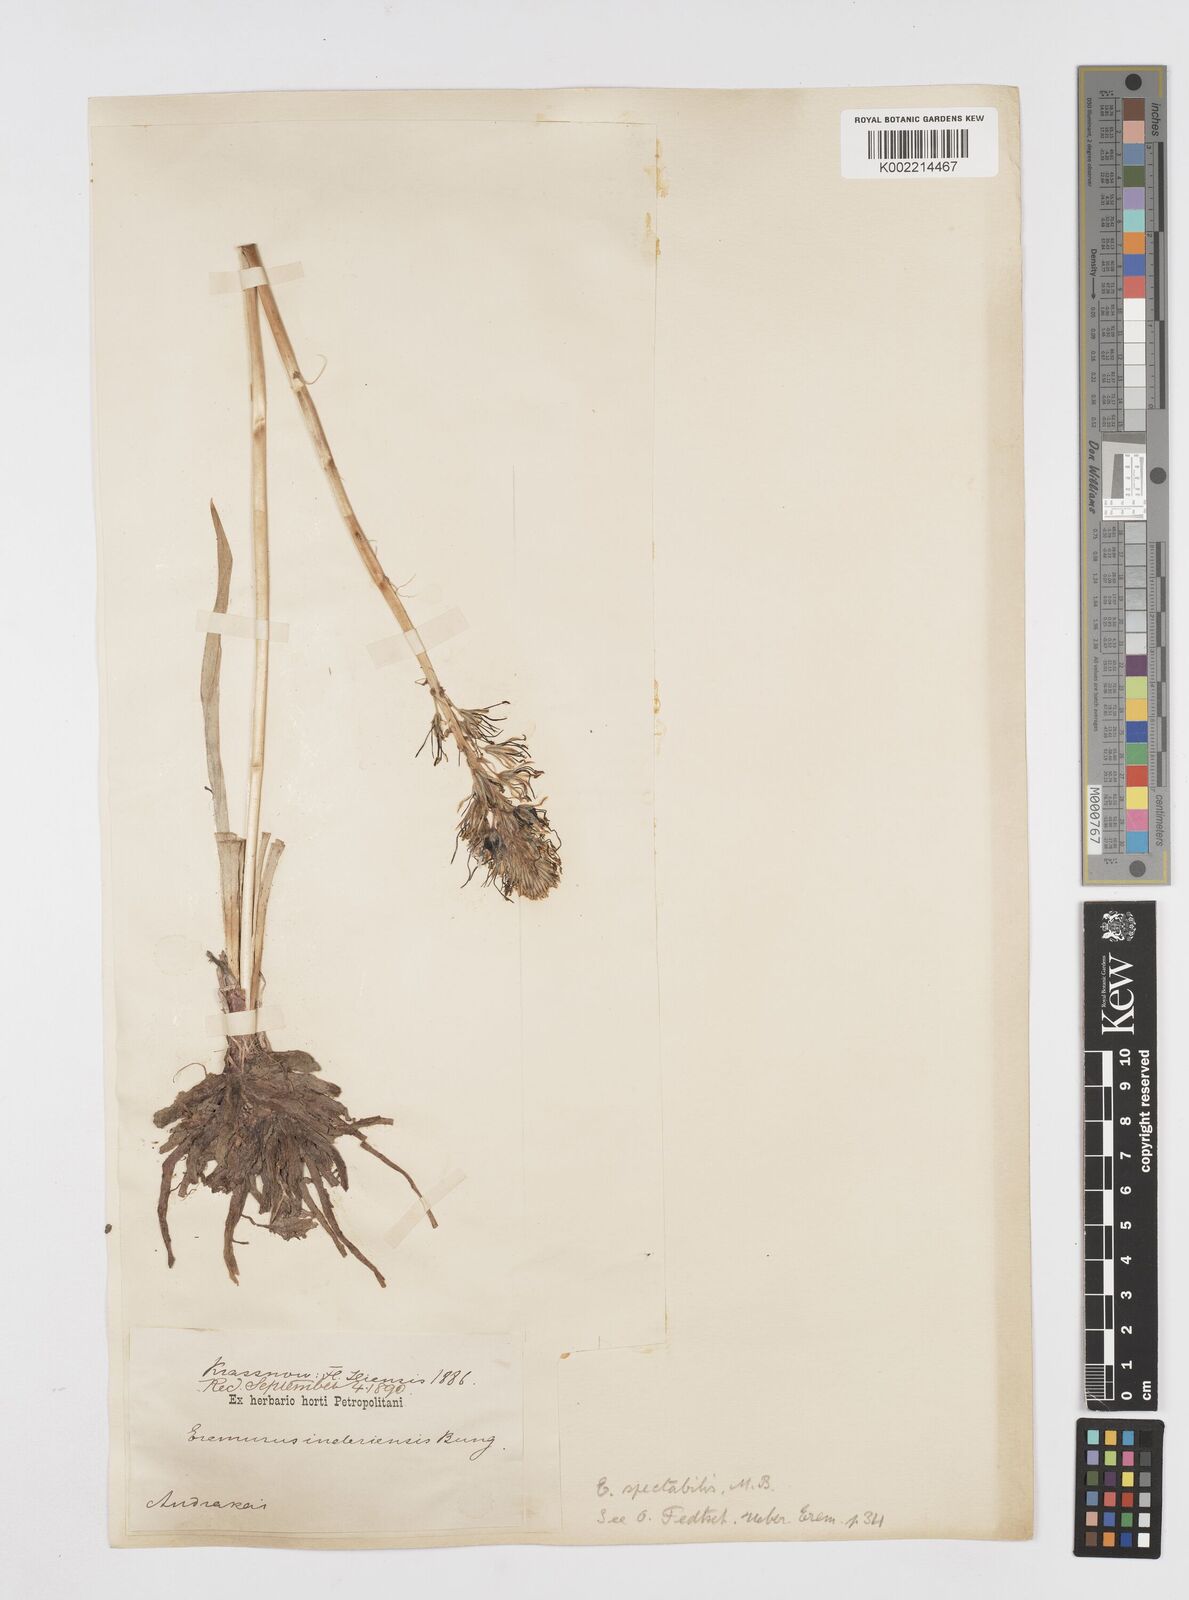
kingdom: Plantae
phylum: Tracheophyta
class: Liliopsida
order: Asparagales
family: Asphodelaceae
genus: Eremurus
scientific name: Eremurus spectabilis
